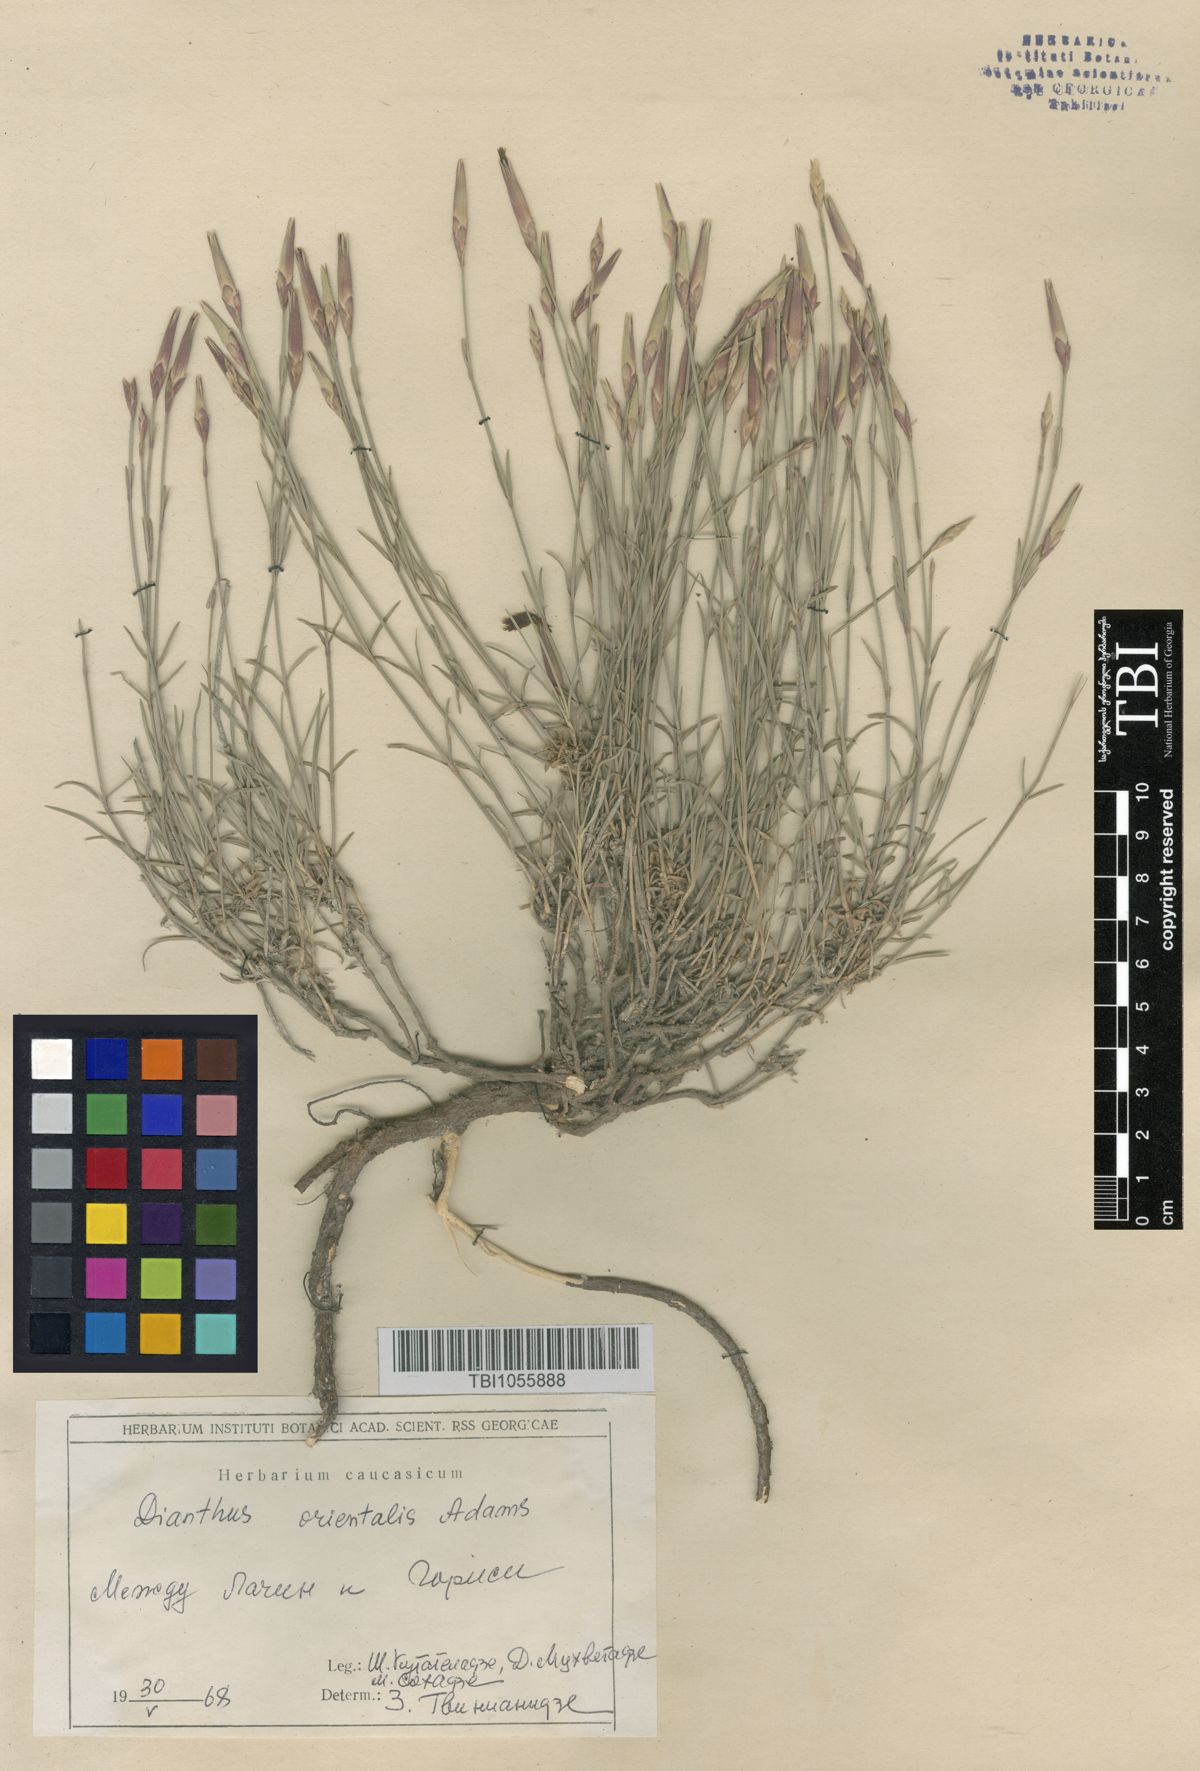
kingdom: Plantae
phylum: Tracheophyta
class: Magnoliopsida
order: Caryophyllales
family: Caryophyllaceae
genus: Dianthus
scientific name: Dianthus orientalis
